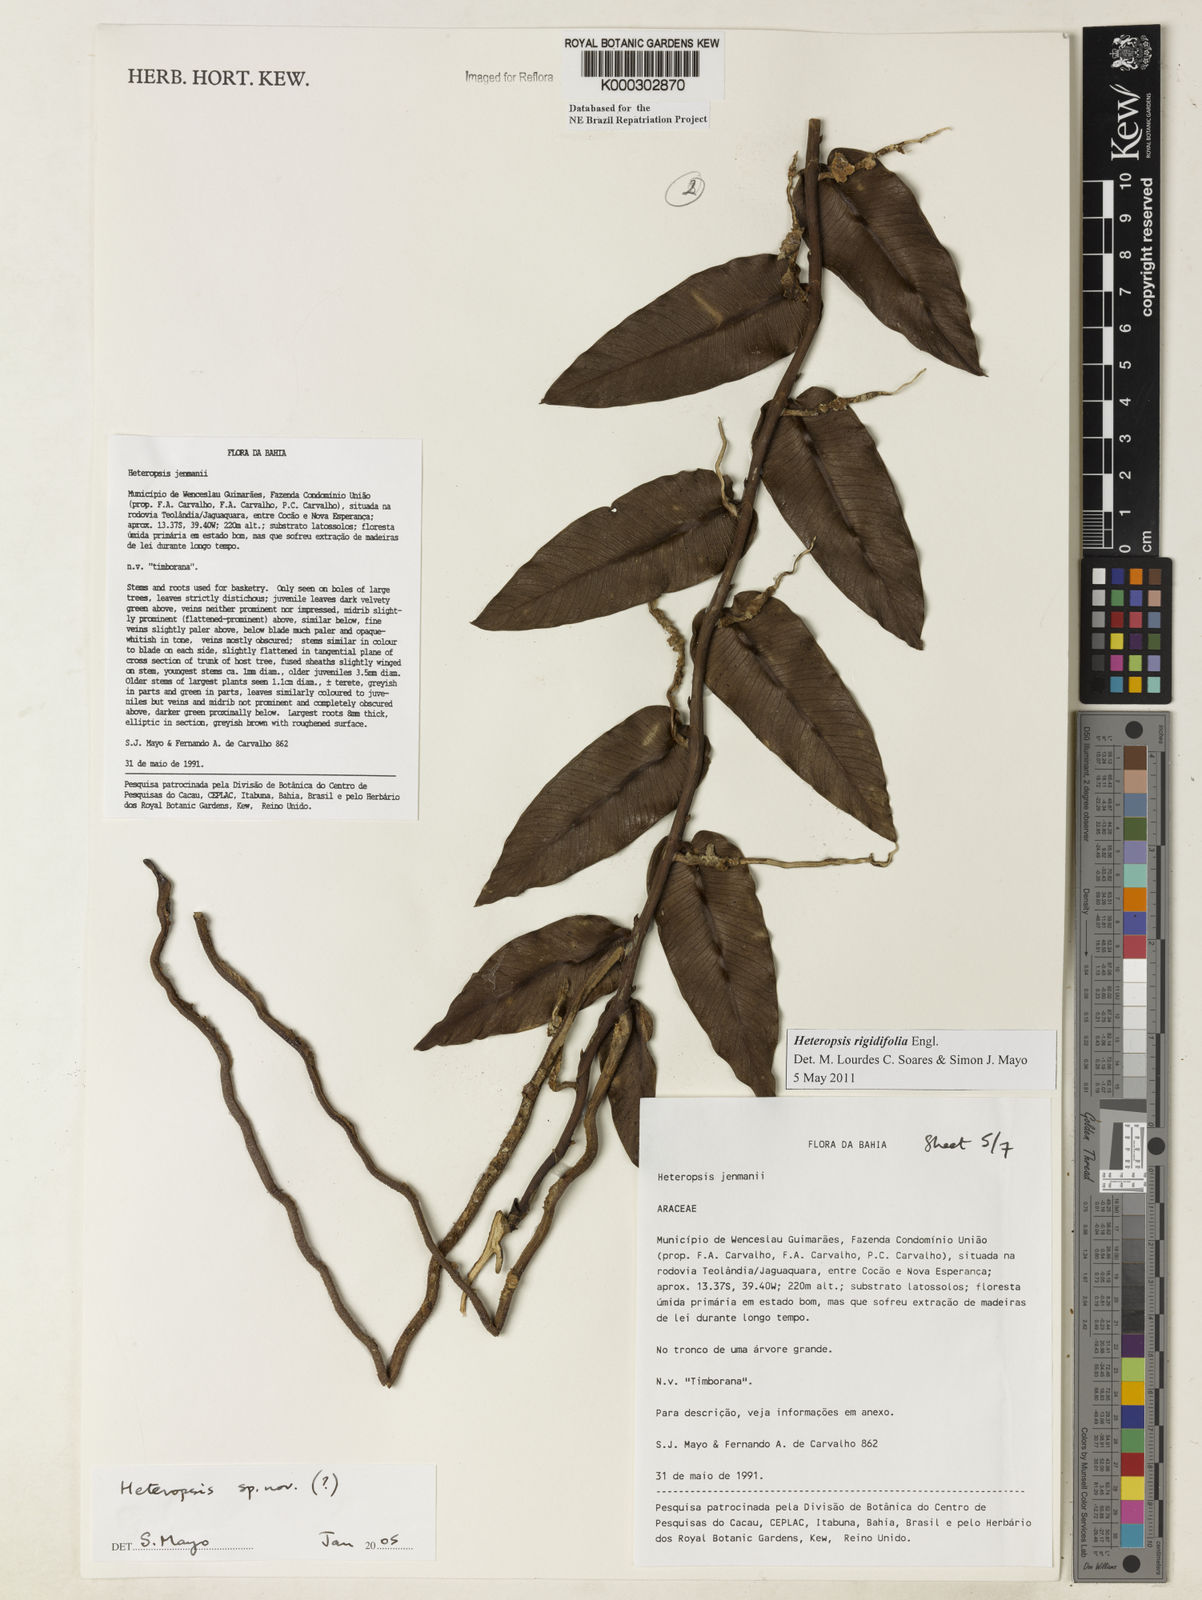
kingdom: Plantae
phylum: Tracheophyta
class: Liliopsida
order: Alismatales
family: Araceae
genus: Heteropsis
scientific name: Heteropsis
